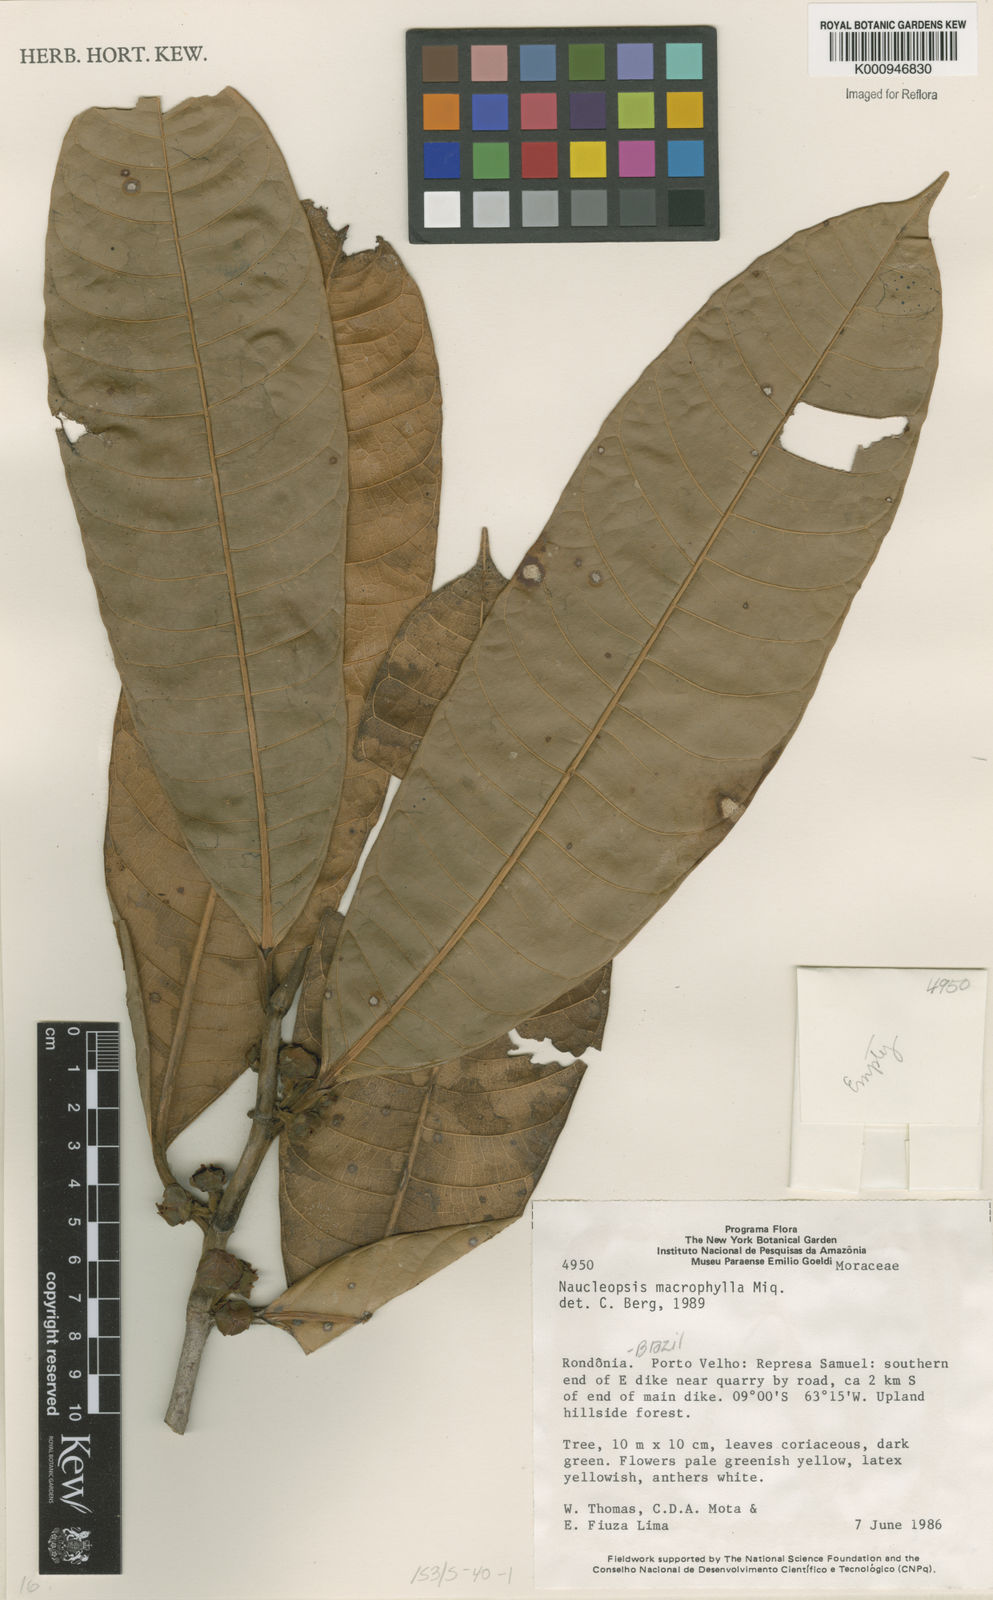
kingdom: Plantae
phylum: Tracheophyta
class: Magnoliopsida
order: Rosales
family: Moraceae
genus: Naucleopsis
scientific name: Naucleopsis macrophylla
